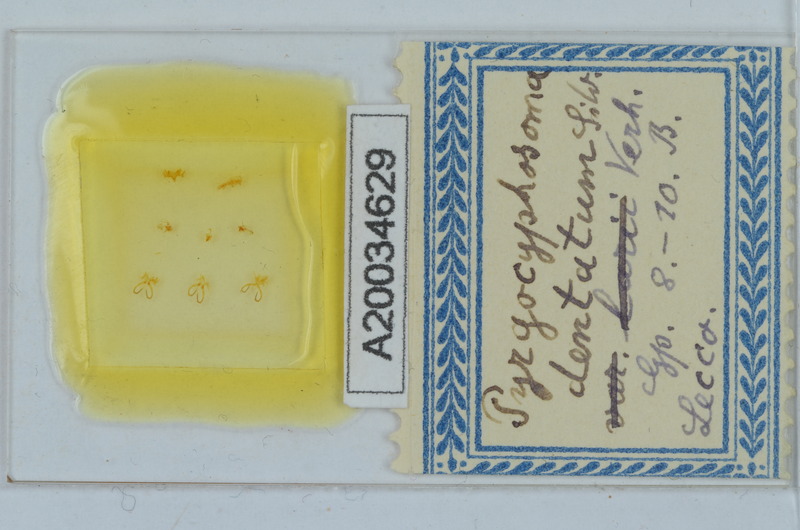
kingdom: Animalia
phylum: Arthropoda
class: Diplopoda
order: Chordeumatida
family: Craspedosomatidae
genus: Pyrgocyphosoma
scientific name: Pyrgocyphosoma dentatum
